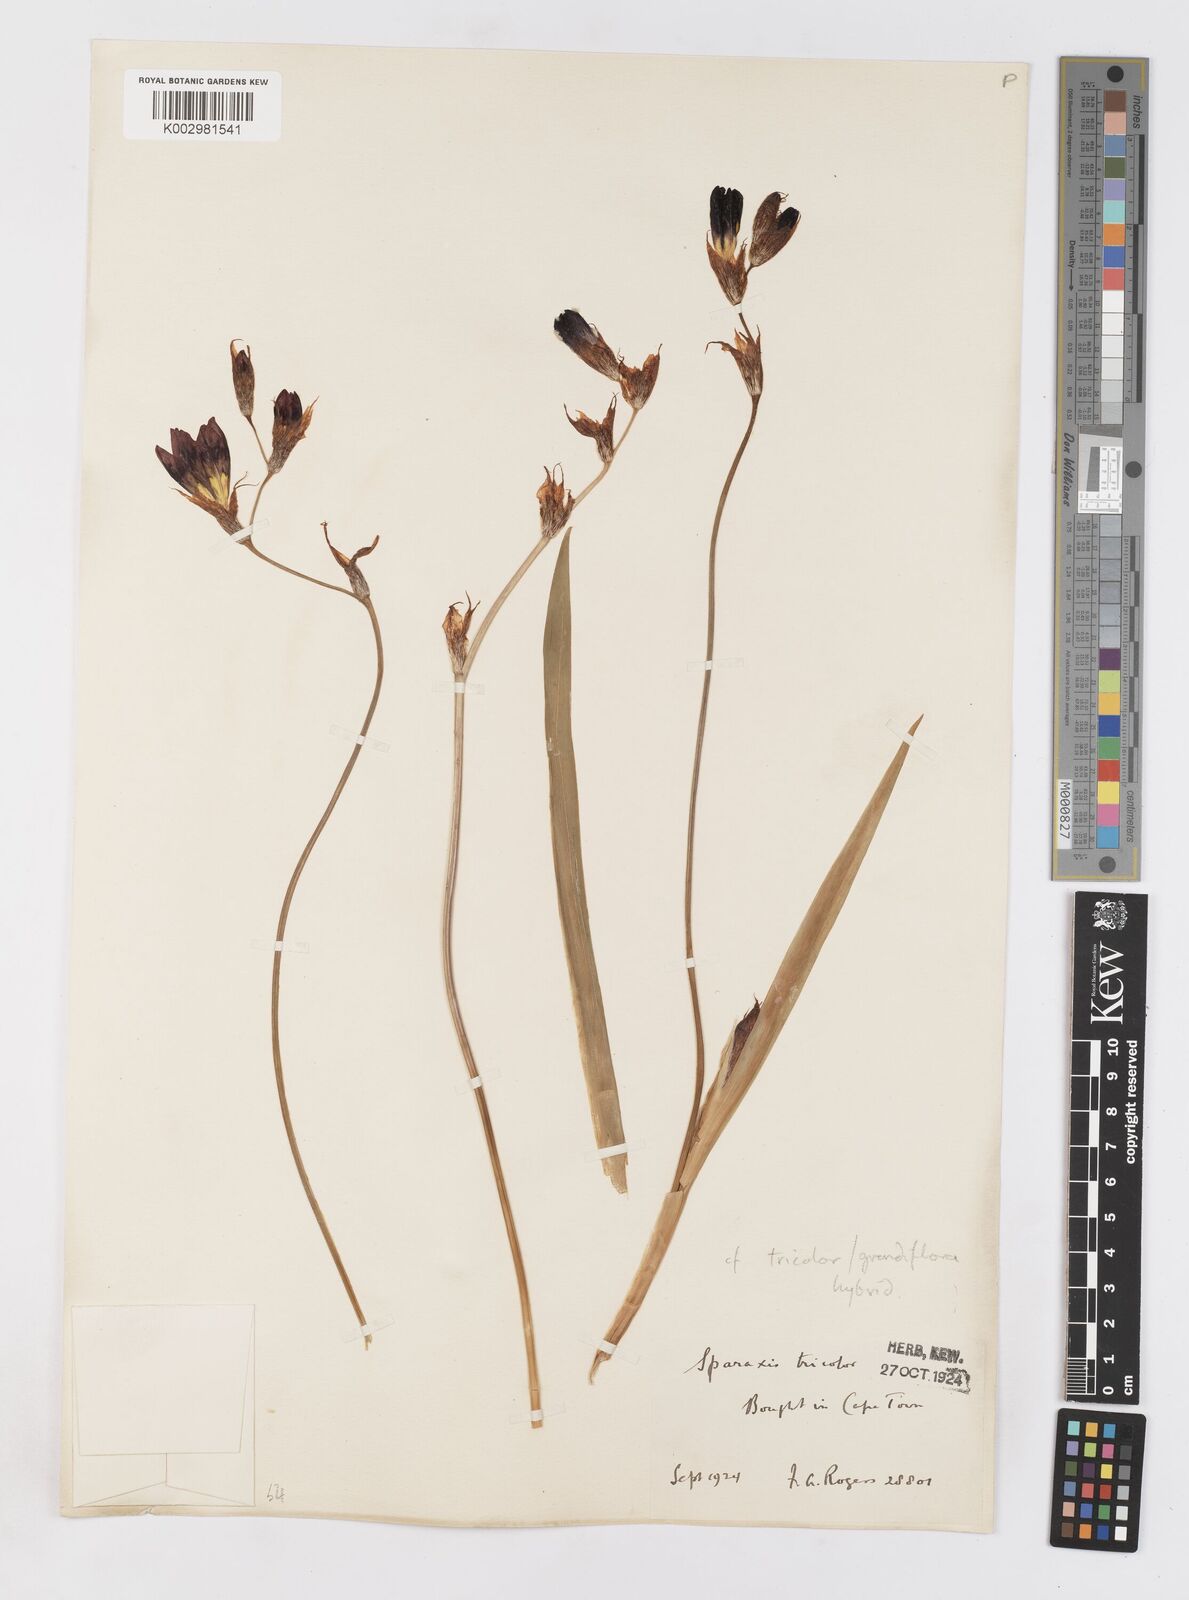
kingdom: Plantae
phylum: Tracheophyta
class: Liliopsida
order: Asparagales
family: Iridaceae
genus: Sparaxis
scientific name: Sparaxis
